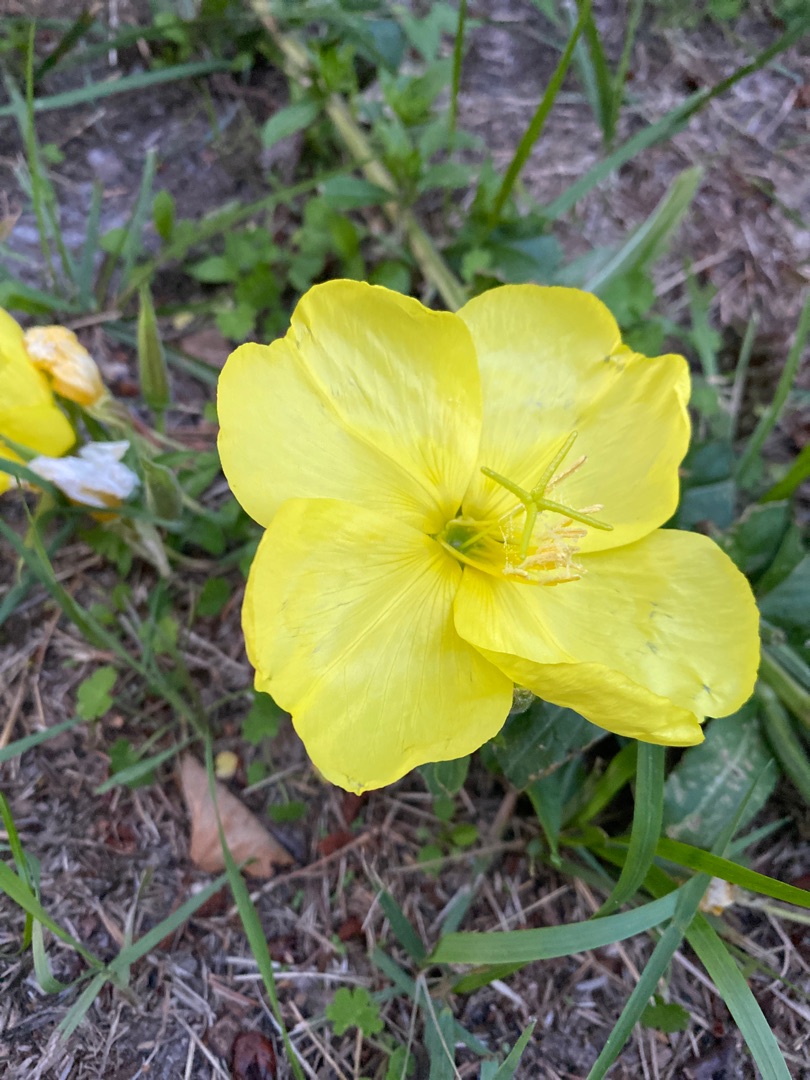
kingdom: Plantae
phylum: Tracheophyta
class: Magnoliopsida
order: Myrtales
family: Onagraceae
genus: Oenothera
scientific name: Oenothera glazioviana
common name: Kæmpe-natlys
